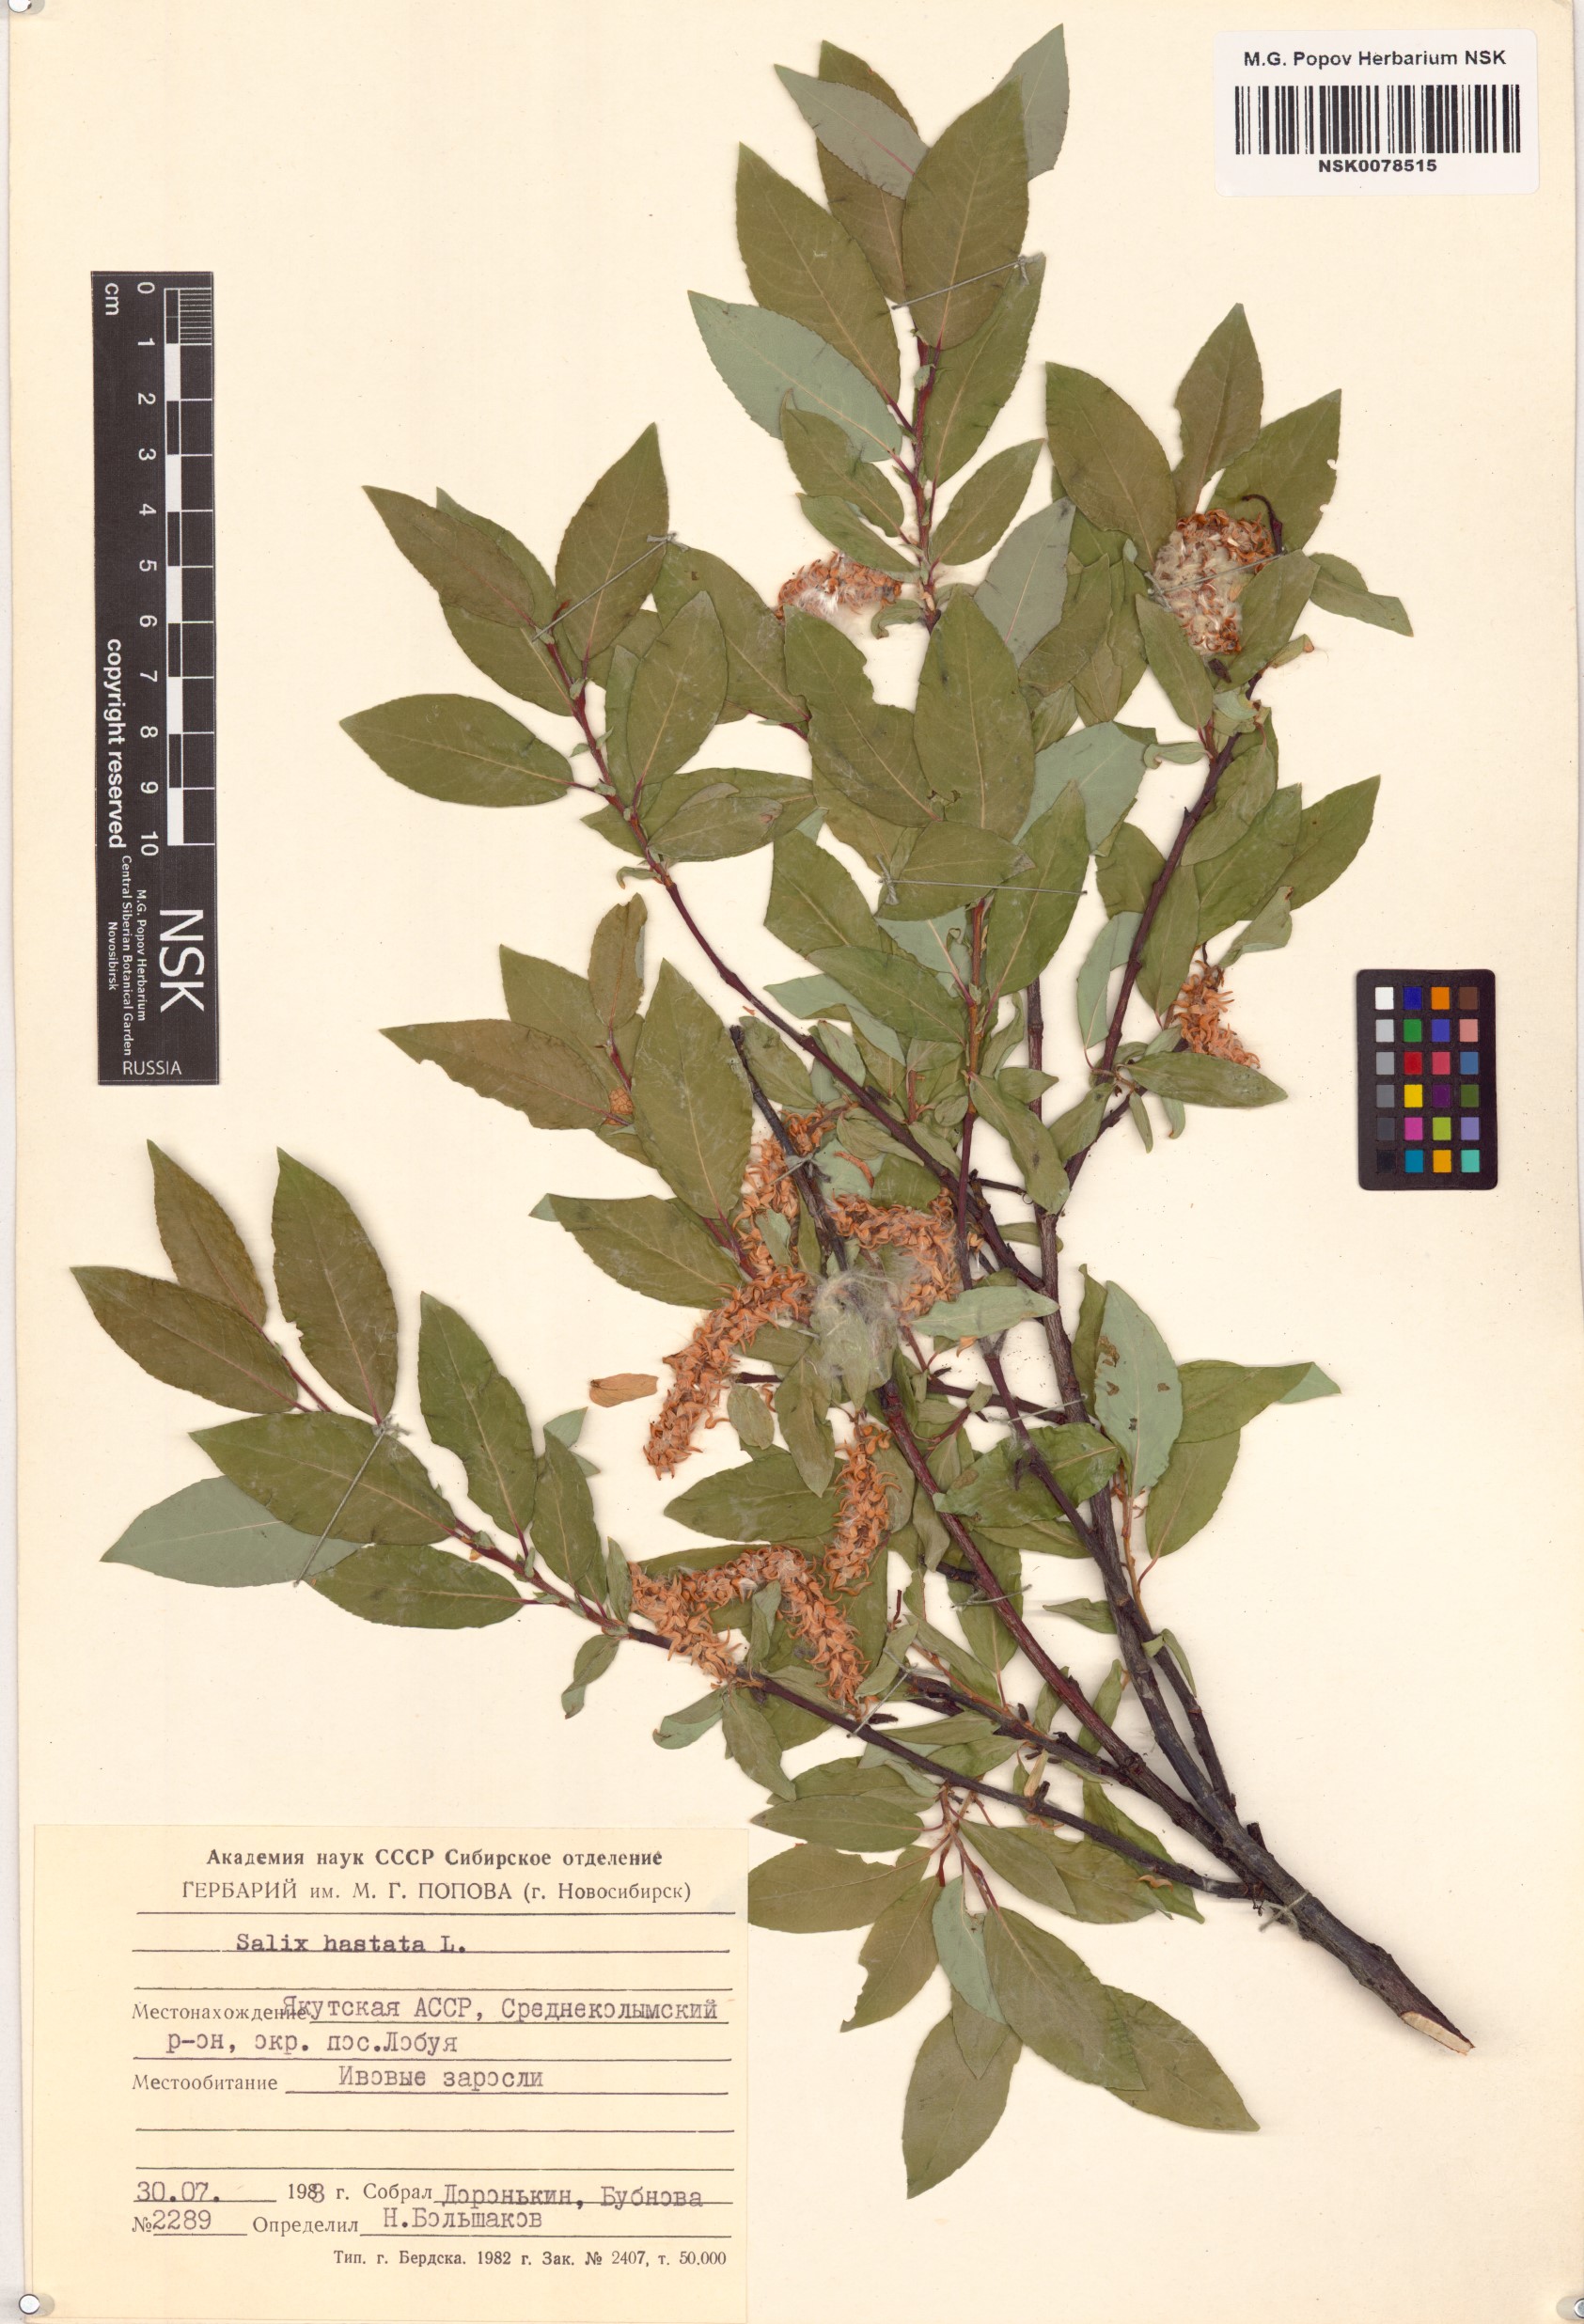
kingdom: Plantae
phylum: Tracheophyta
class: Magnoliopsida
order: Malpighiales
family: Salicaceae
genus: Salix
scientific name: Salix hastata
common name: Halberd willow
